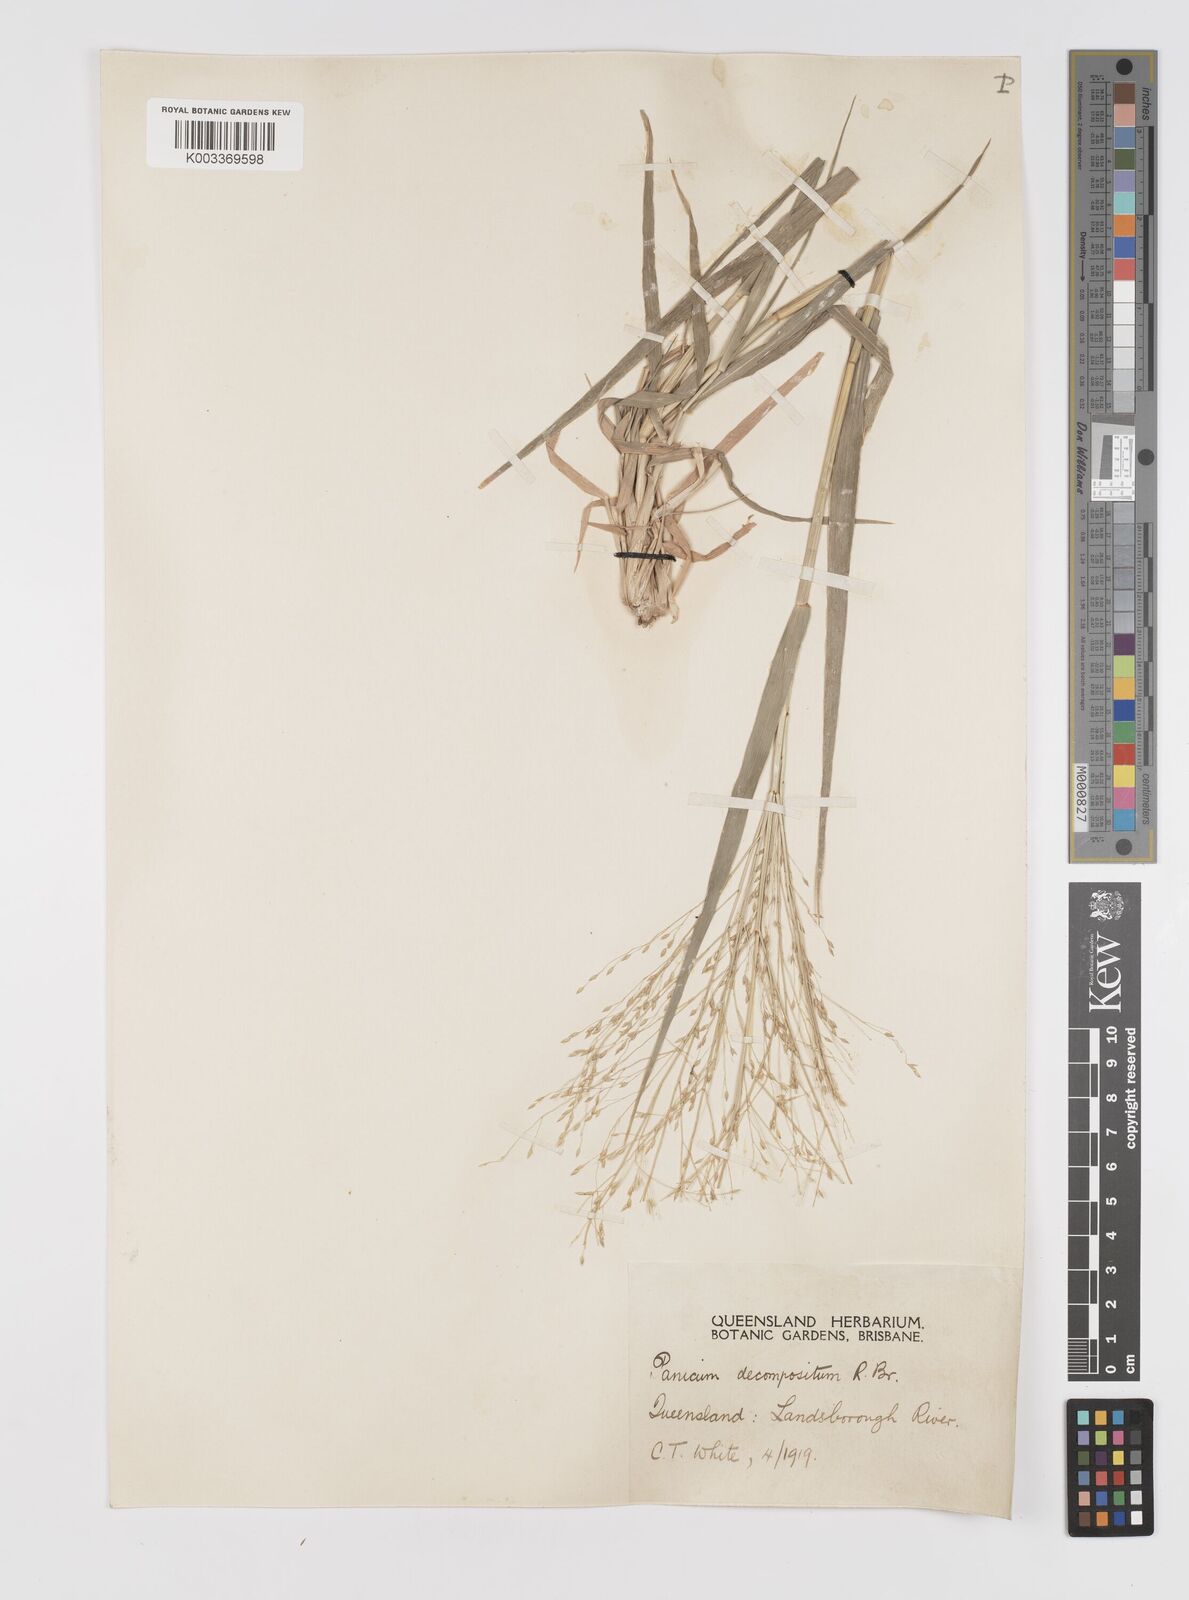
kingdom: Plantae
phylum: Tracheophyta
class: Liliopsida
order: Poales
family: Poaceae
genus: Panicum
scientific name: Panicum decompositum
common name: Australian millet
